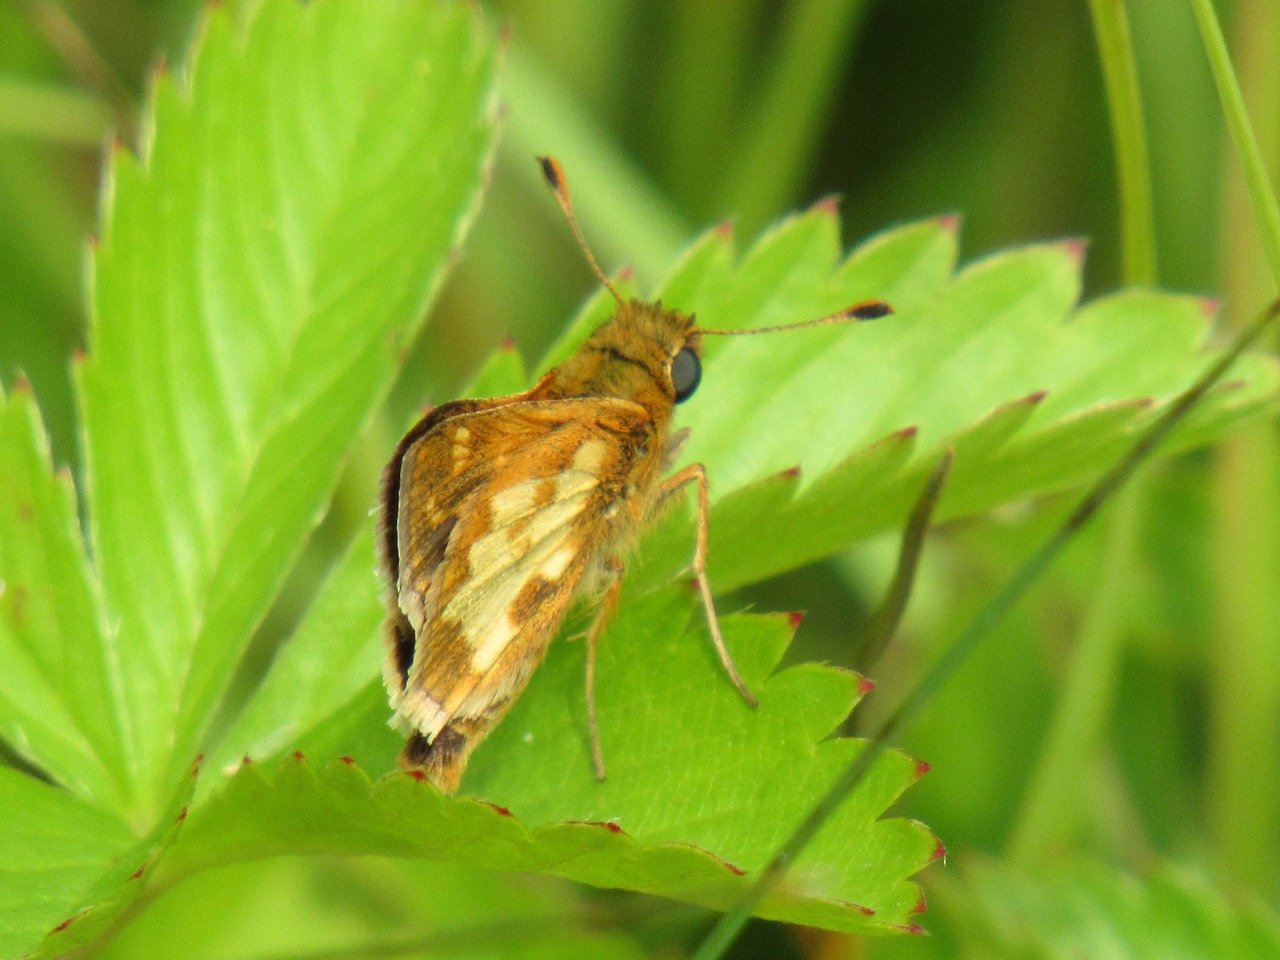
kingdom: Animalia
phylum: Arthropoda
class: Insecta
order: Lepidoptera
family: Hesperiidae
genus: Polites
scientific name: Polites coras
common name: Peck's Skipper
